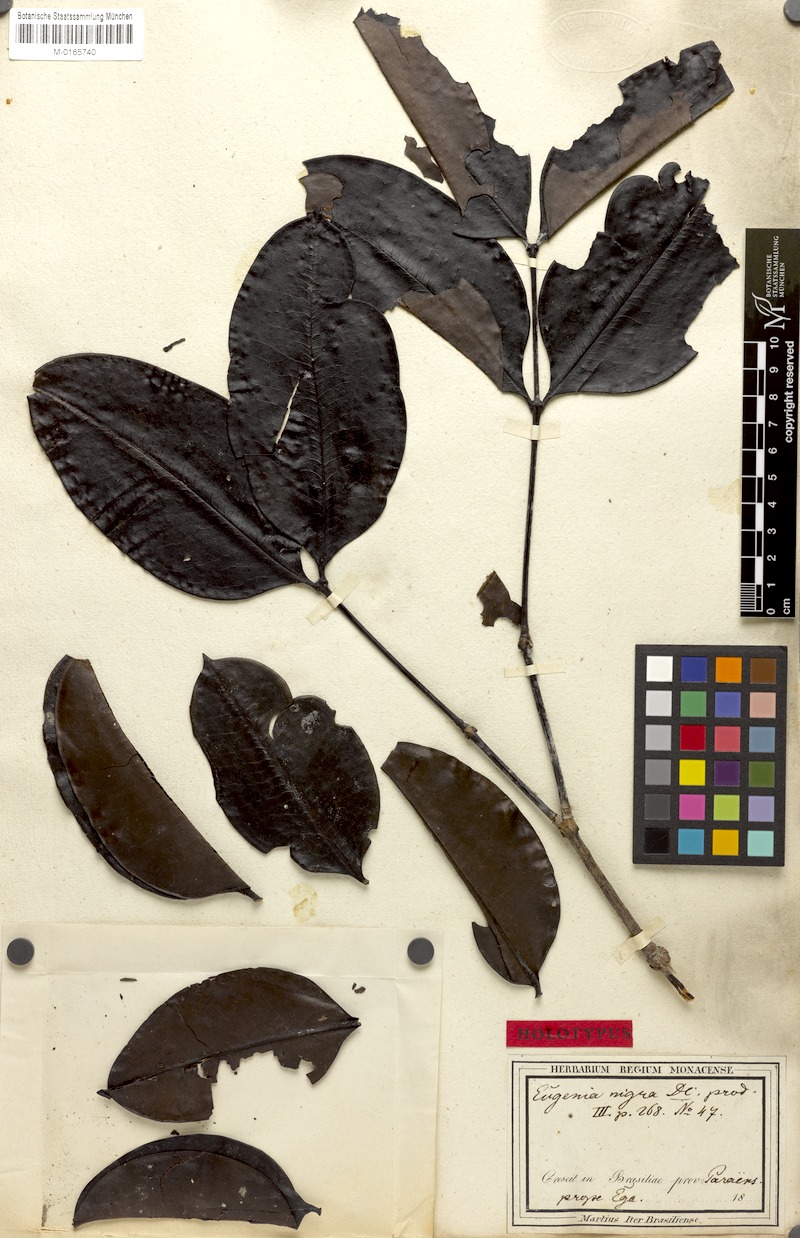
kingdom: Plantae
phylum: Tracheophyta
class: Magnoliopsida
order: Myrtales
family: Melastomataceae
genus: Mouriri
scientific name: Mouriri nigra
